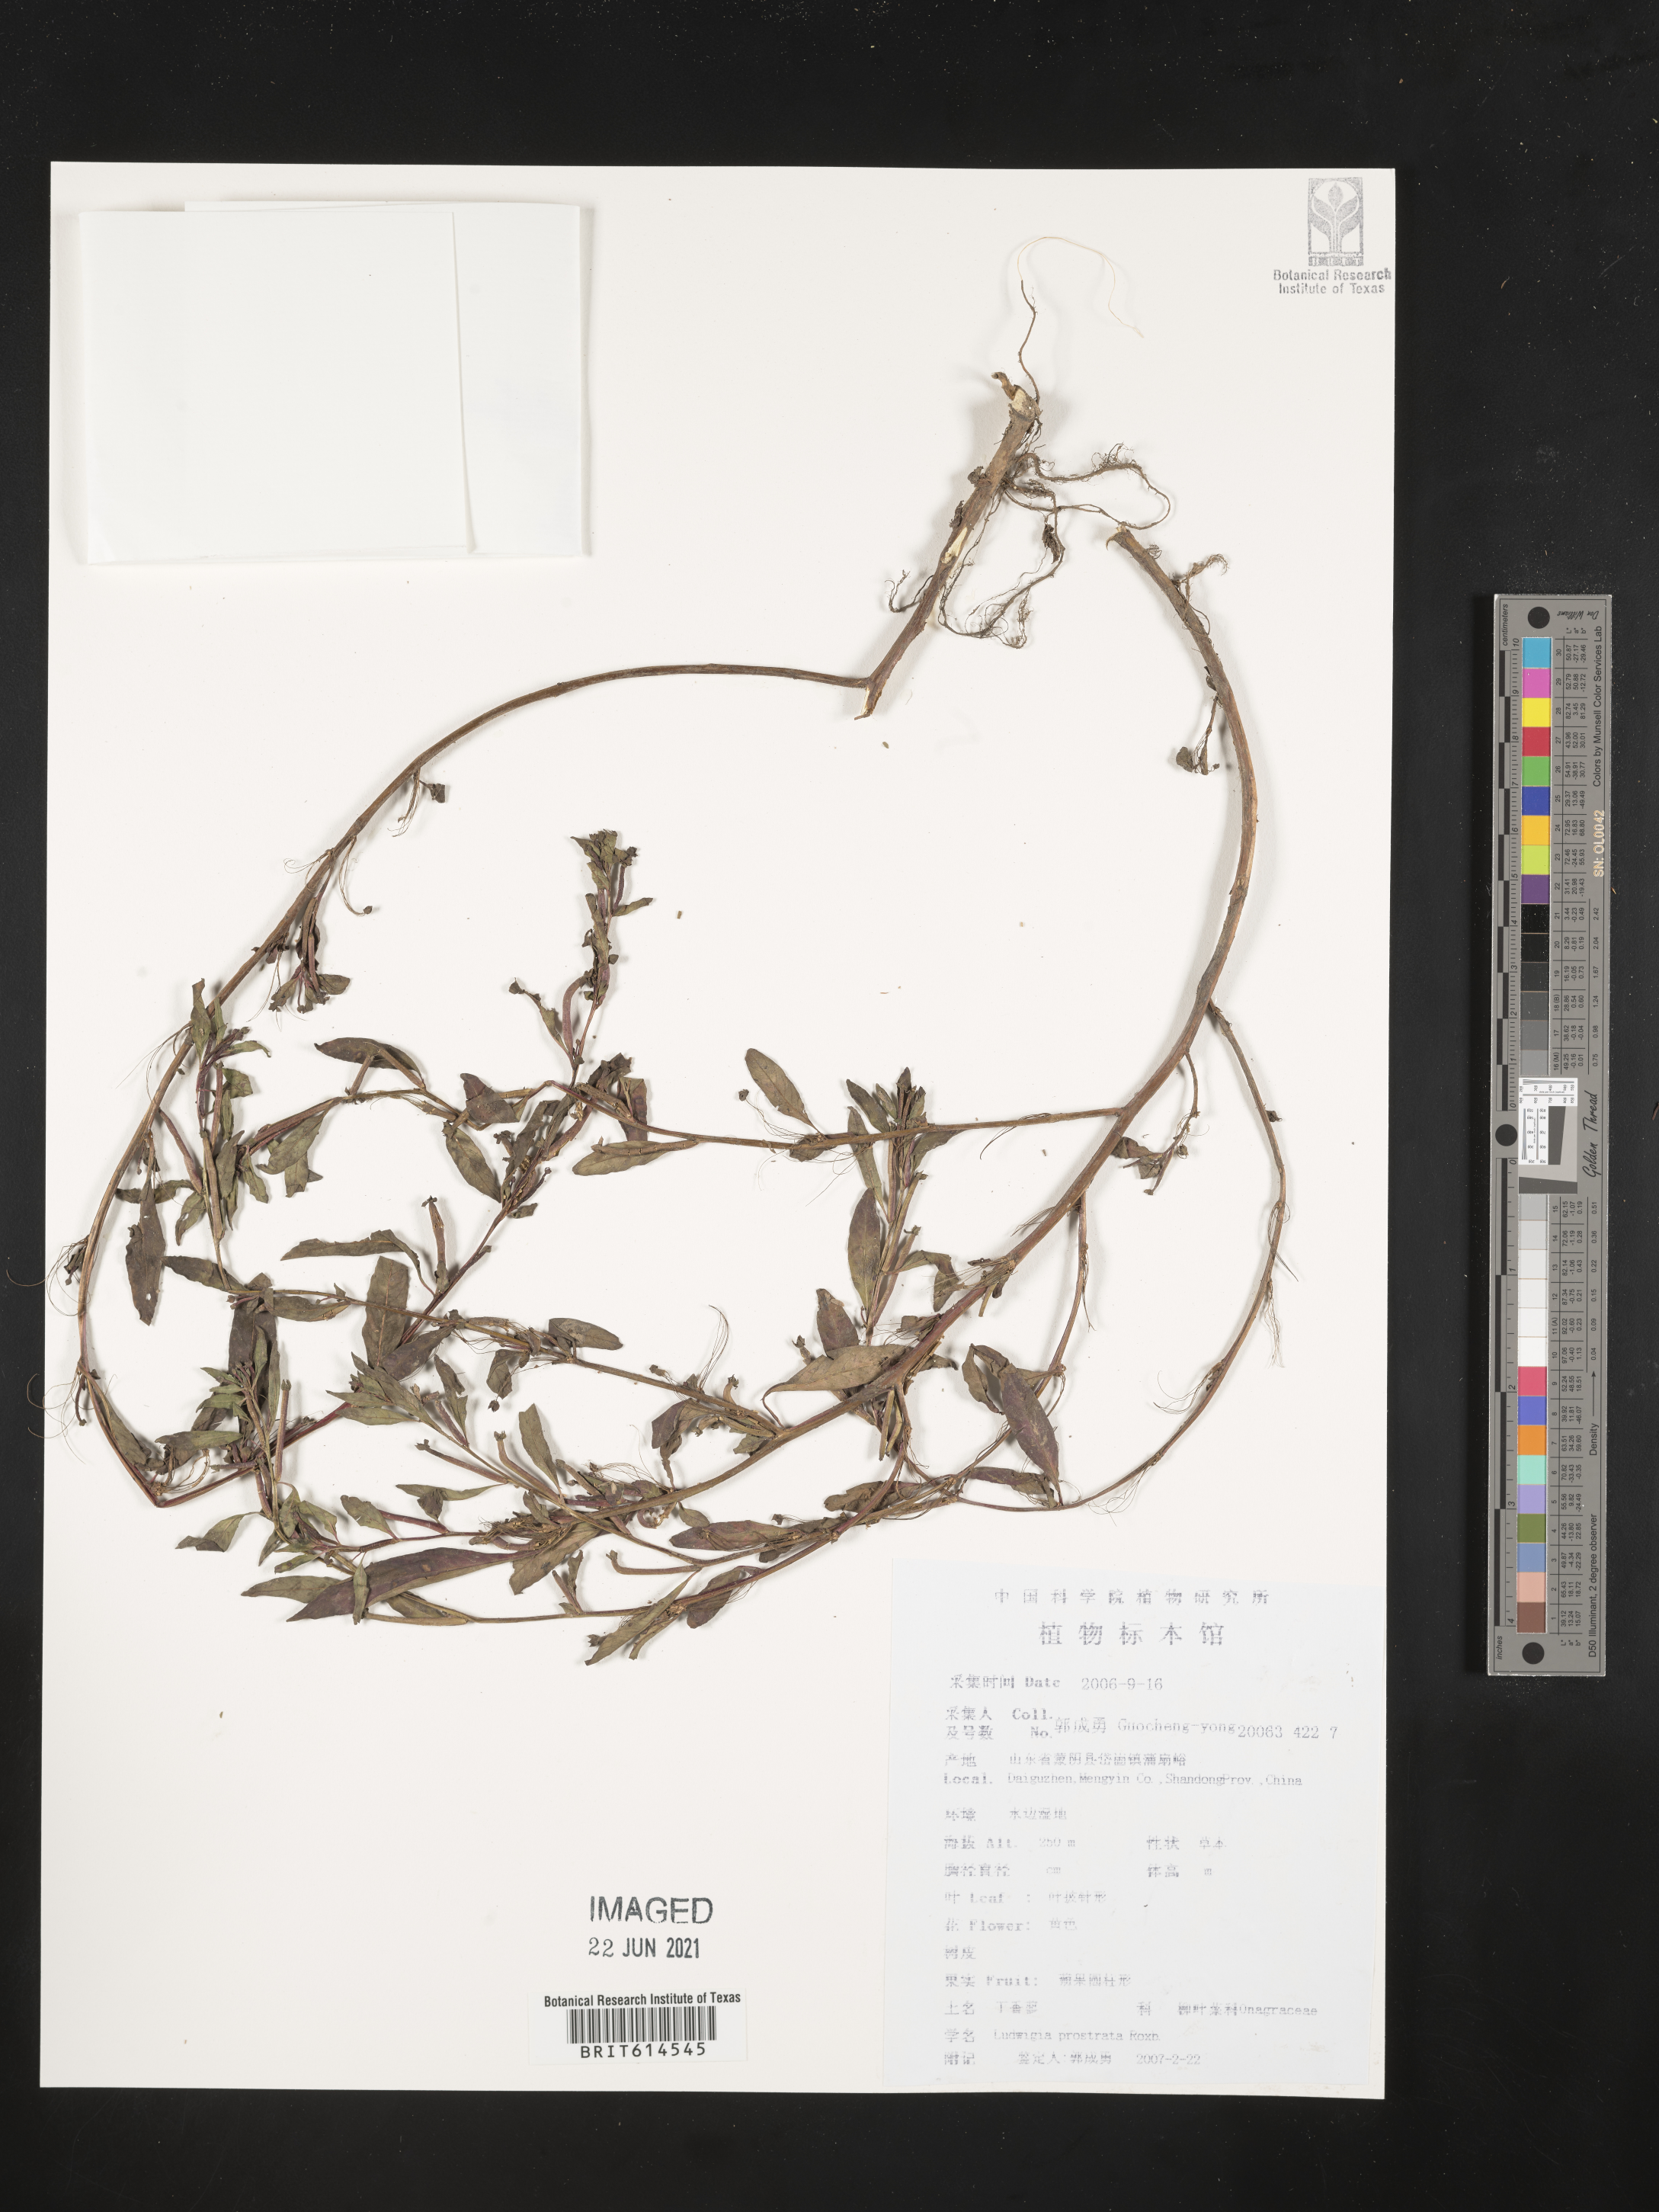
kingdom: Plantae
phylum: Tracheophyta
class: Magnoliopsida
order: Myrtales
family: Onagraceae
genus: Ludwigia
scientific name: Ludwigia prostrata
